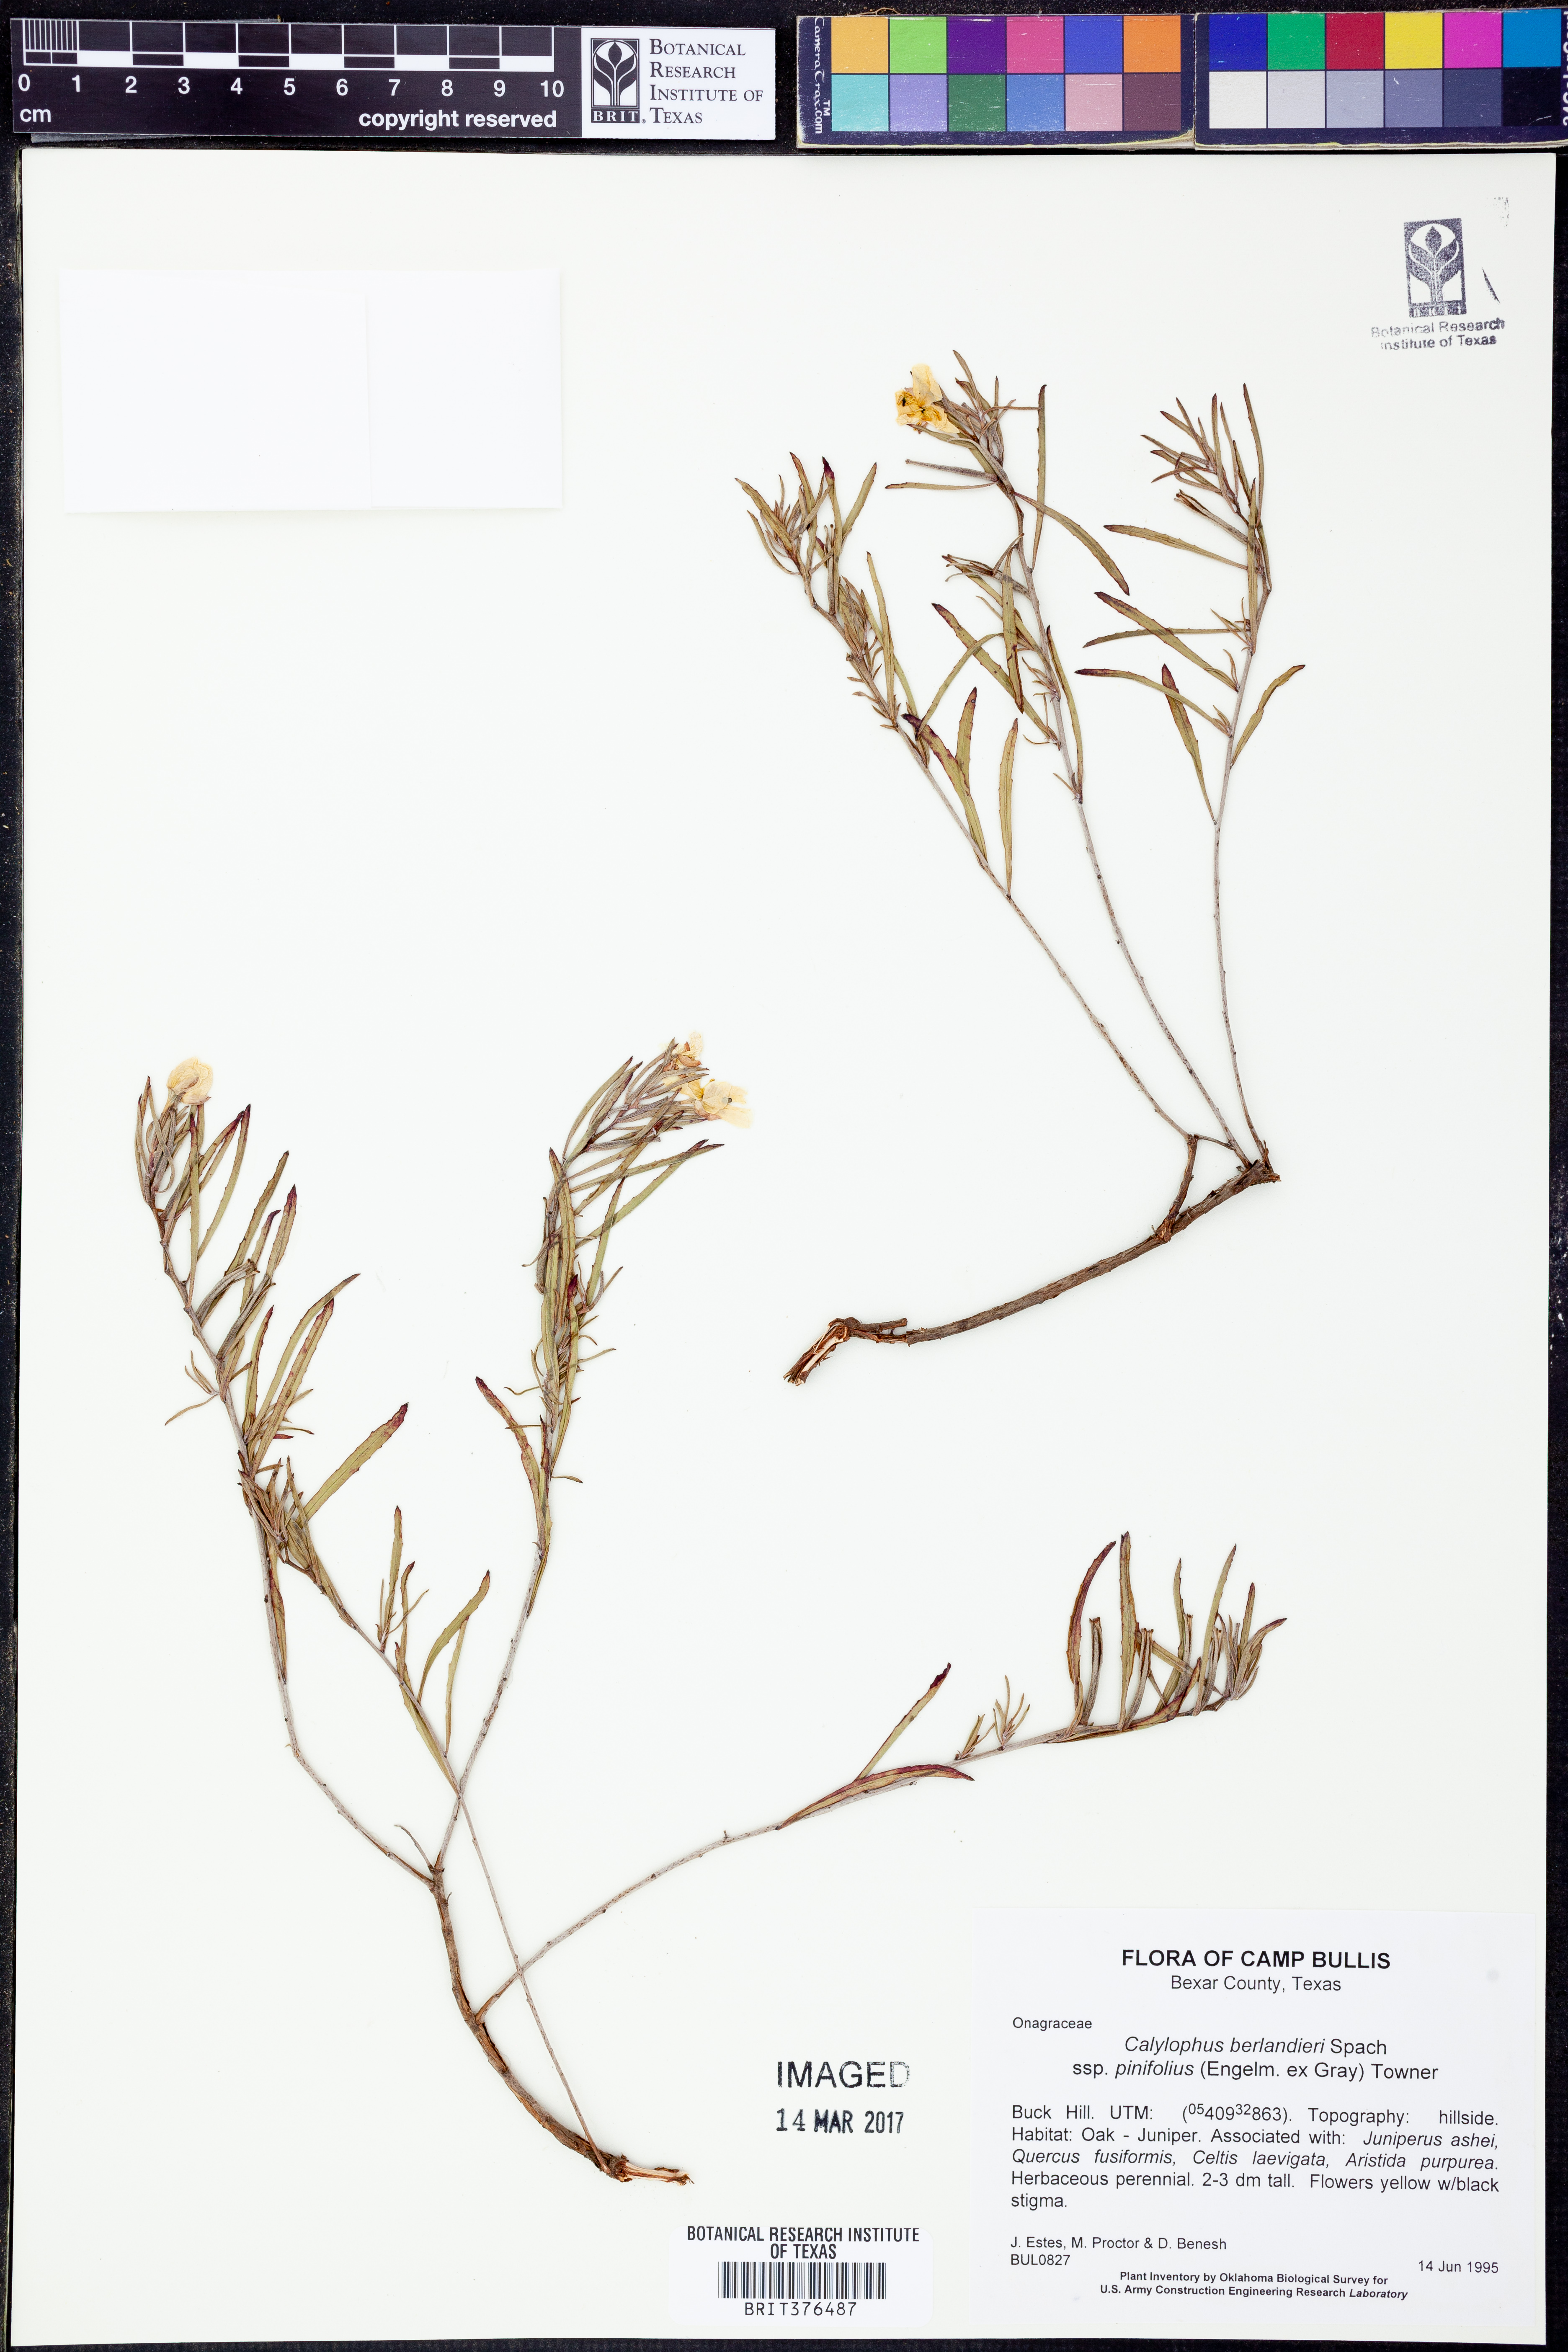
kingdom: Plantae
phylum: Tracheophyta
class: Magnoliopsida
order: Myrtales
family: Onagraceae
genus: Oenothera
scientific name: Oenothera capillifolia
